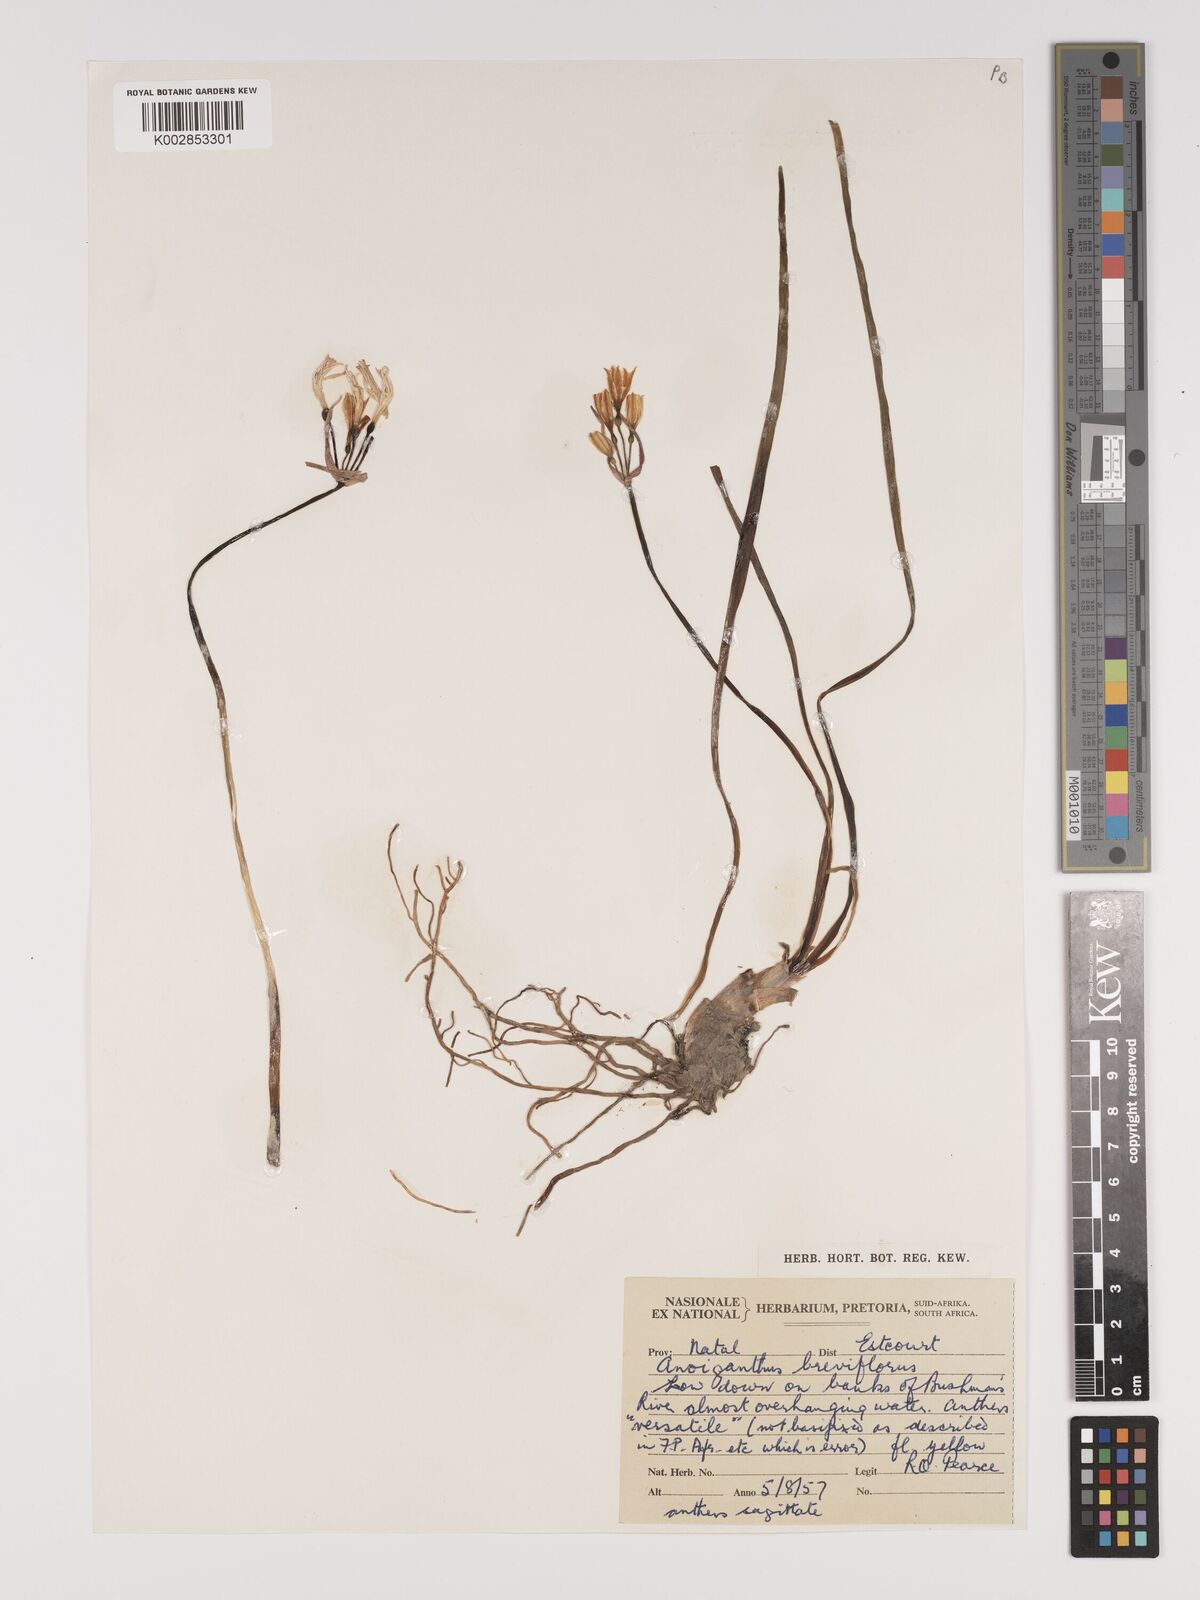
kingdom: Plantae
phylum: Tracheophyta
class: Liliopsida
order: Asparagales
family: Amaryllidaceae
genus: Cyrtanthus
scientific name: Cyrtanthus breviflorus
